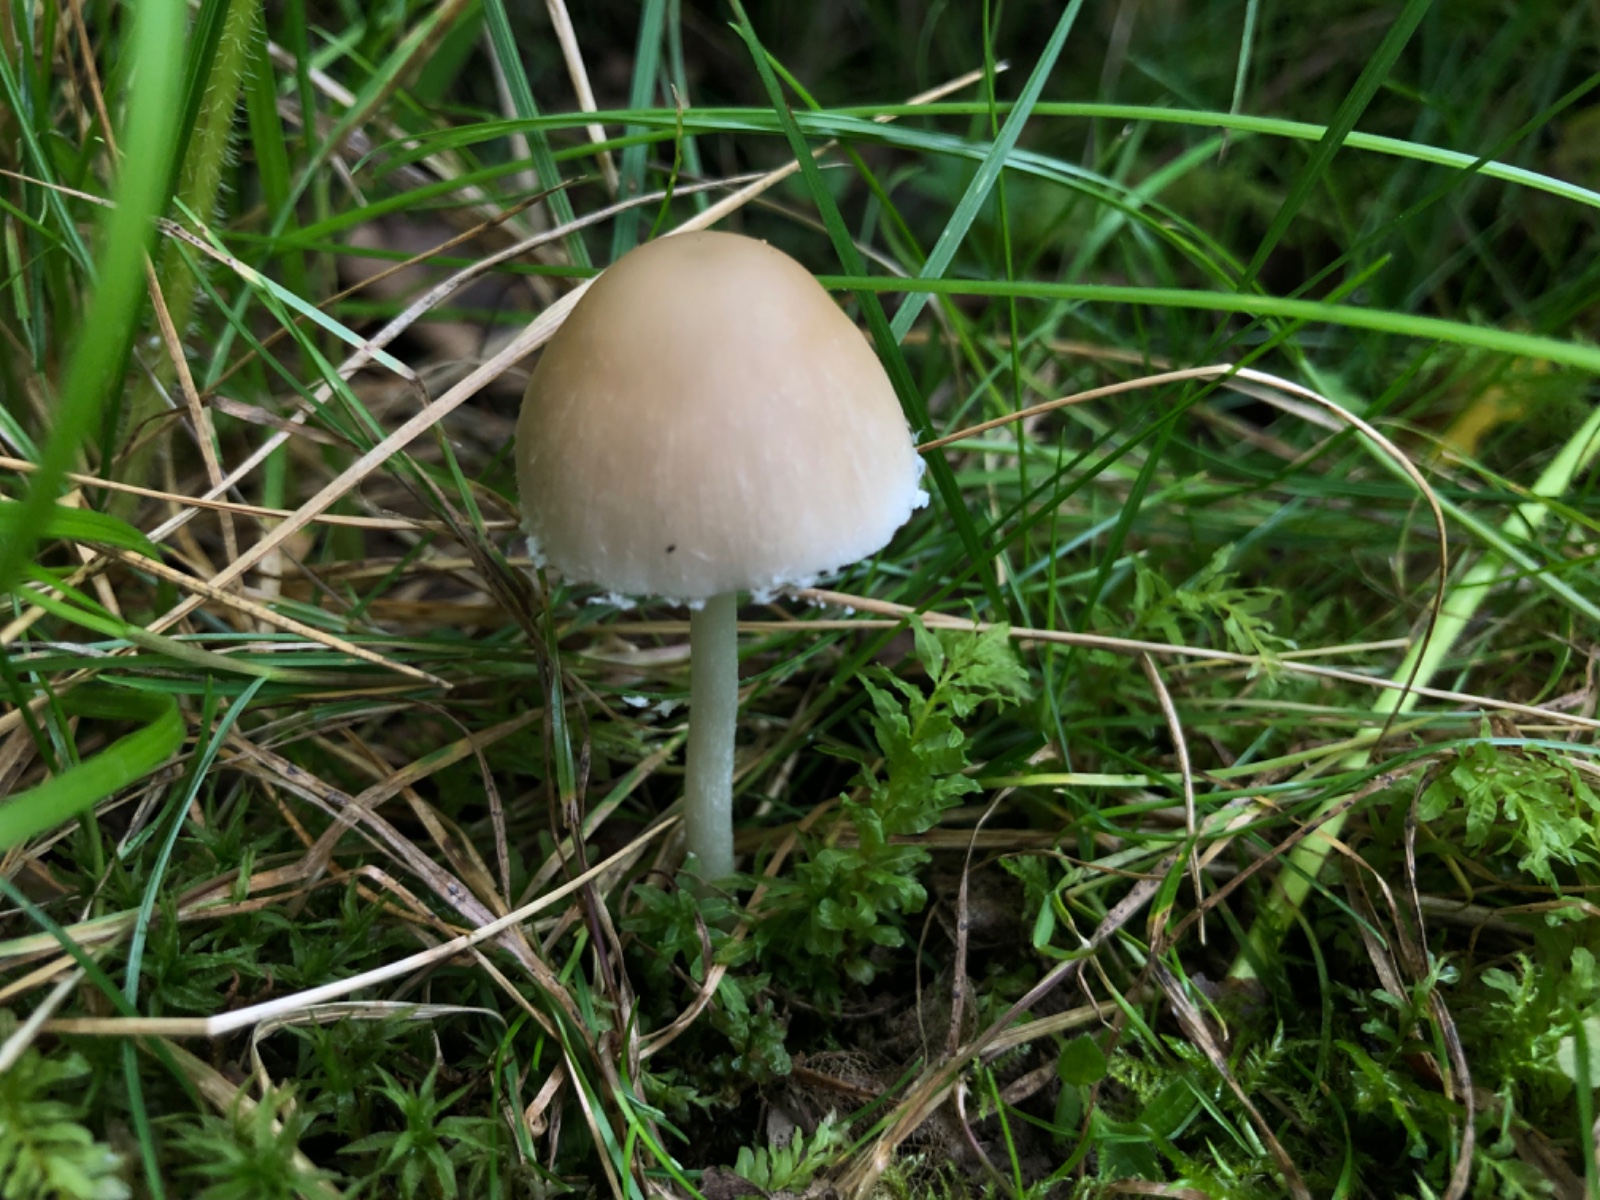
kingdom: Fungi
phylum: Basidiomycota
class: Agaricomycetes
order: Agaricales
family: Psathyrellaceae
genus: Candolleomyces
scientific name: Candolleomyces candolleanus
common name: Candolles mørkhat
